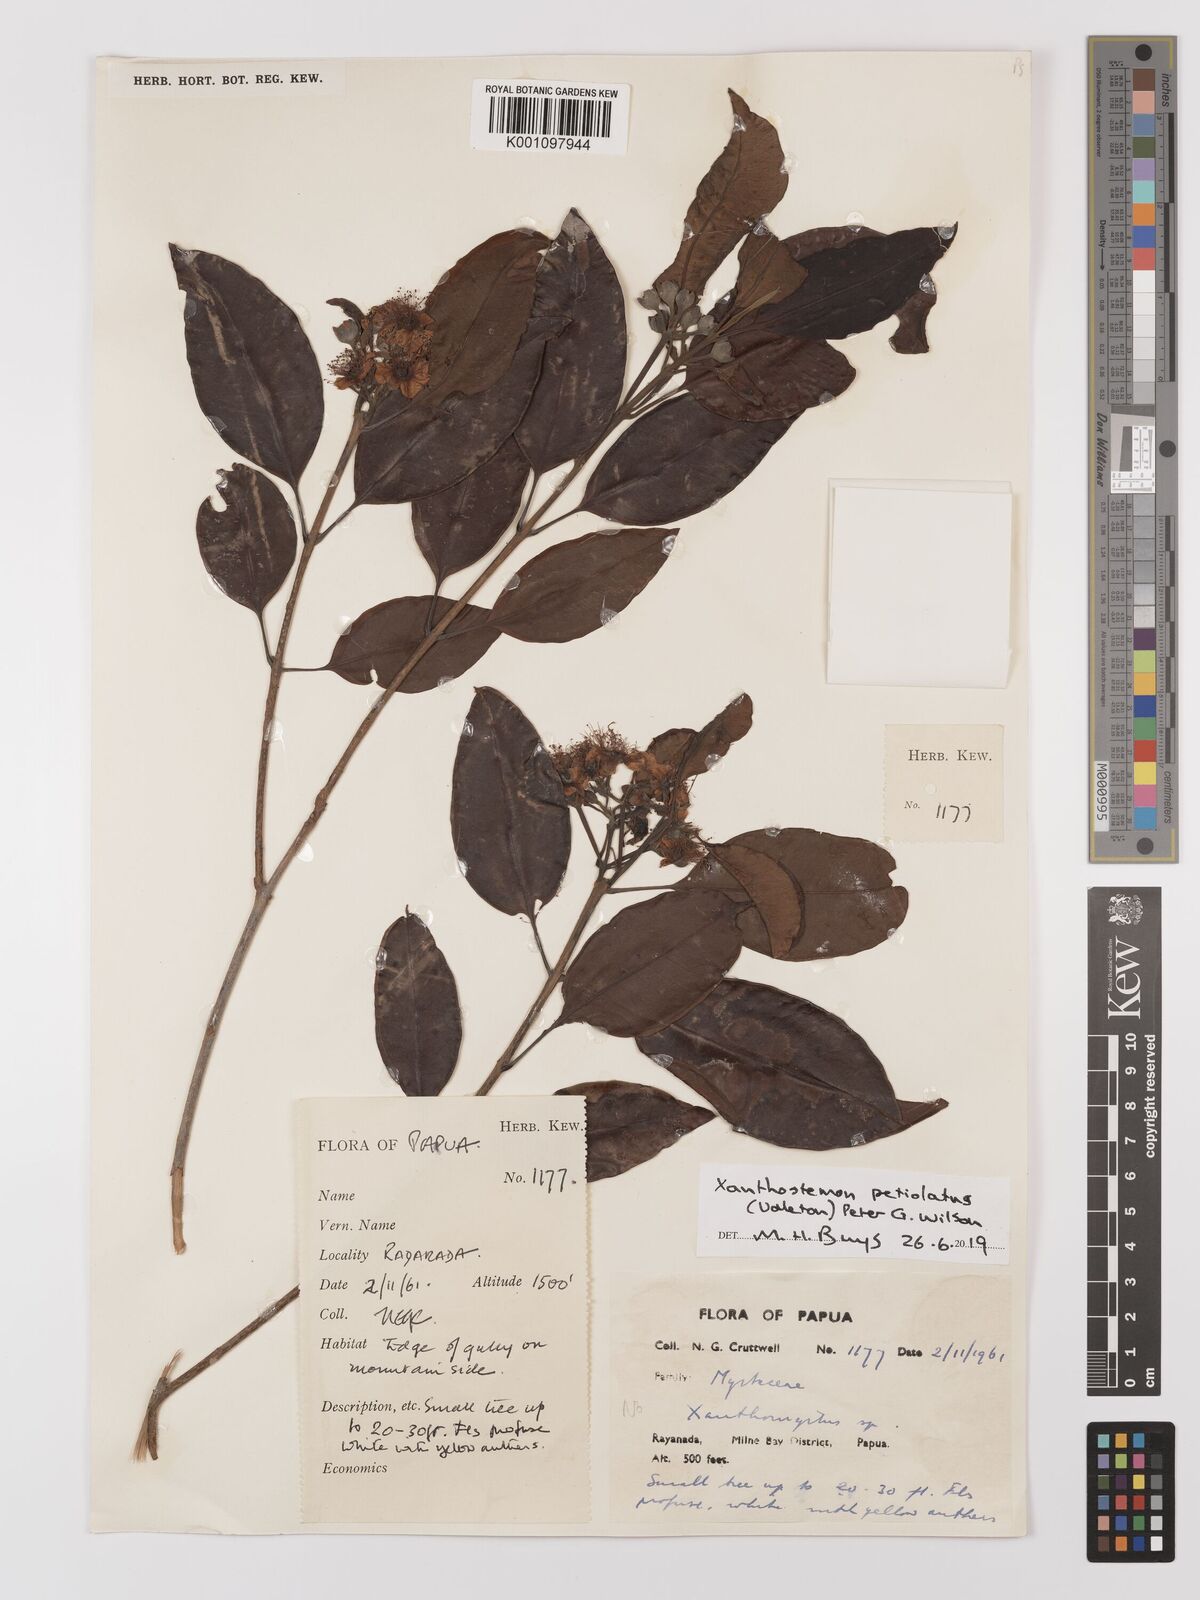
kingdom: Plantae
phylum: Tracheophyta
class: Magnoliopsida
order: Myrtales
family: Myrtaceae
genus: Xanthostemon
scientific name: Xanthostemon petiolatus
